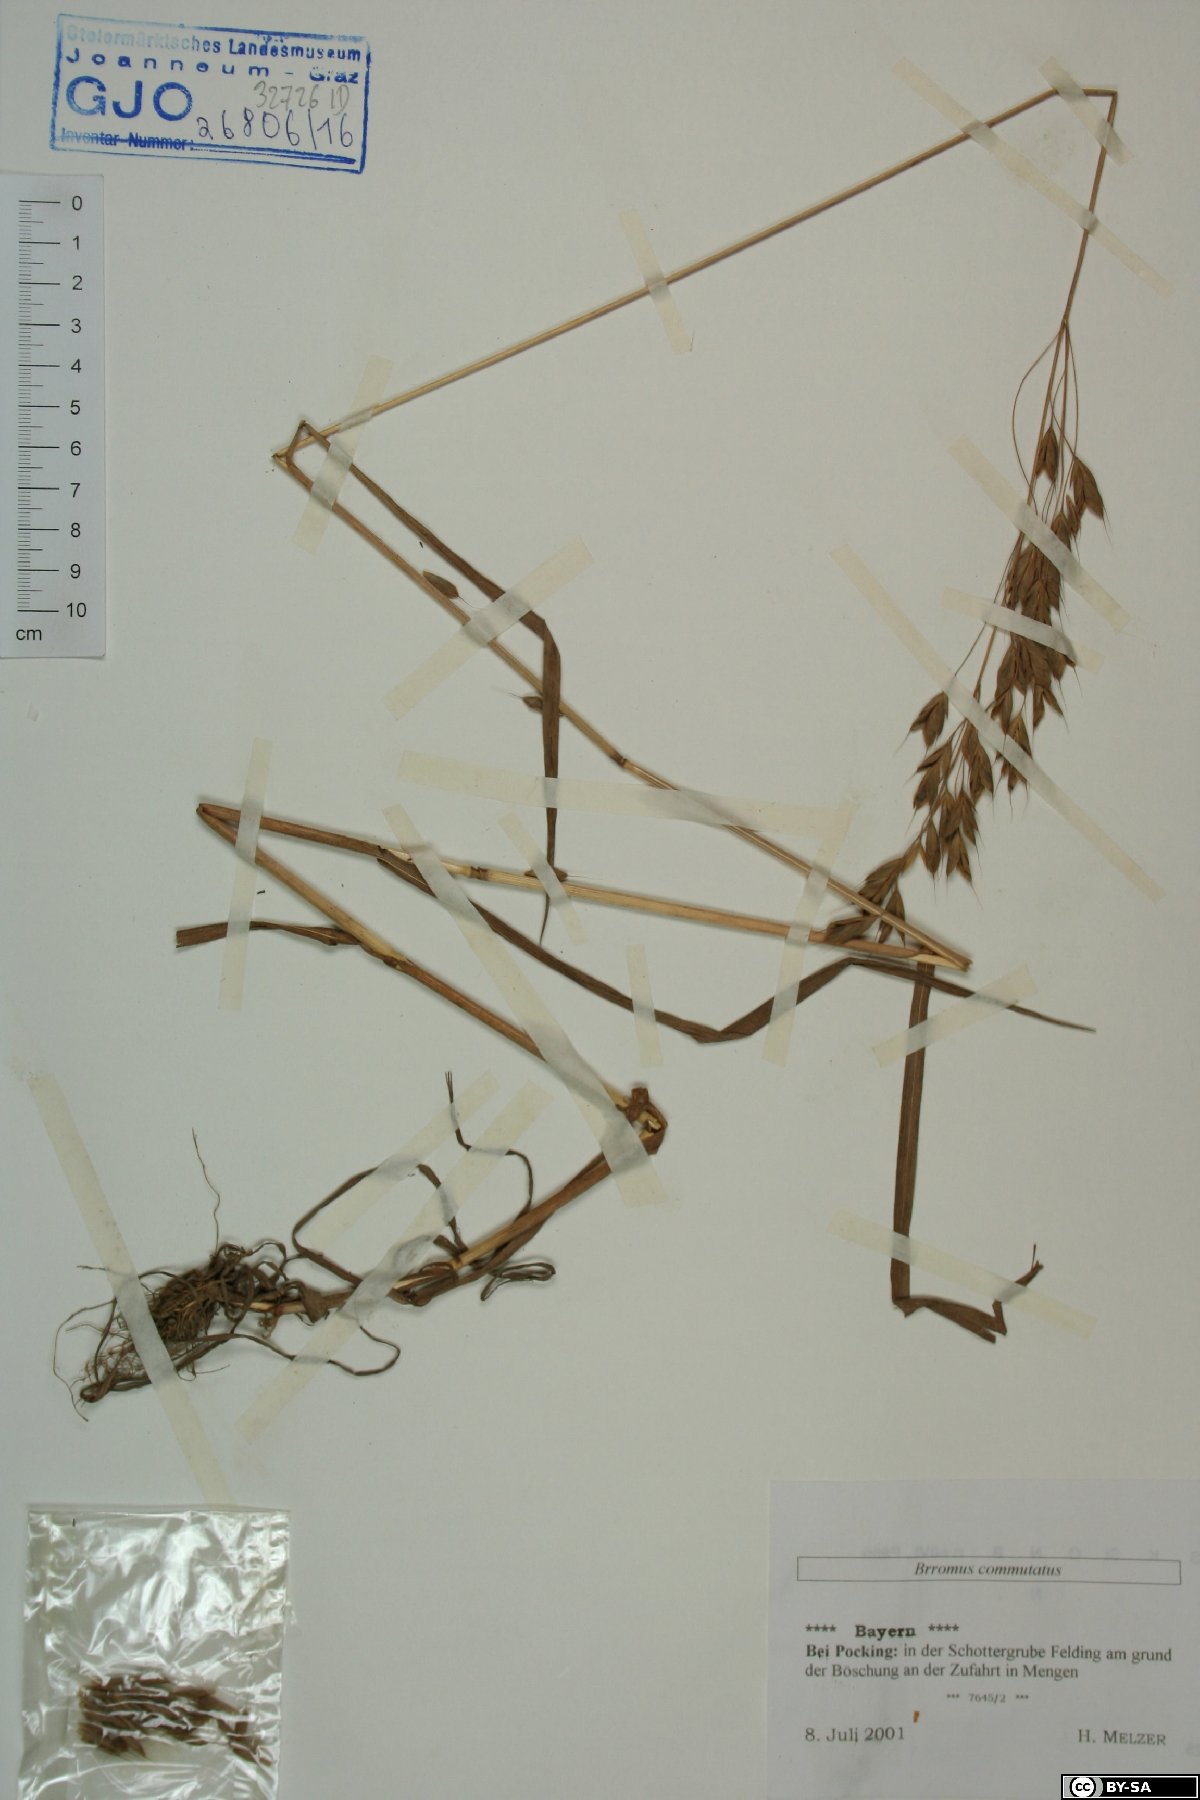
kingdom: Plantae
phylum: Tracheophyta
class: Liliopsida
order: Poales
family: Poaceae
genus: Bromus
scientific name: Bromus commutatus
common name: Meadow brome
